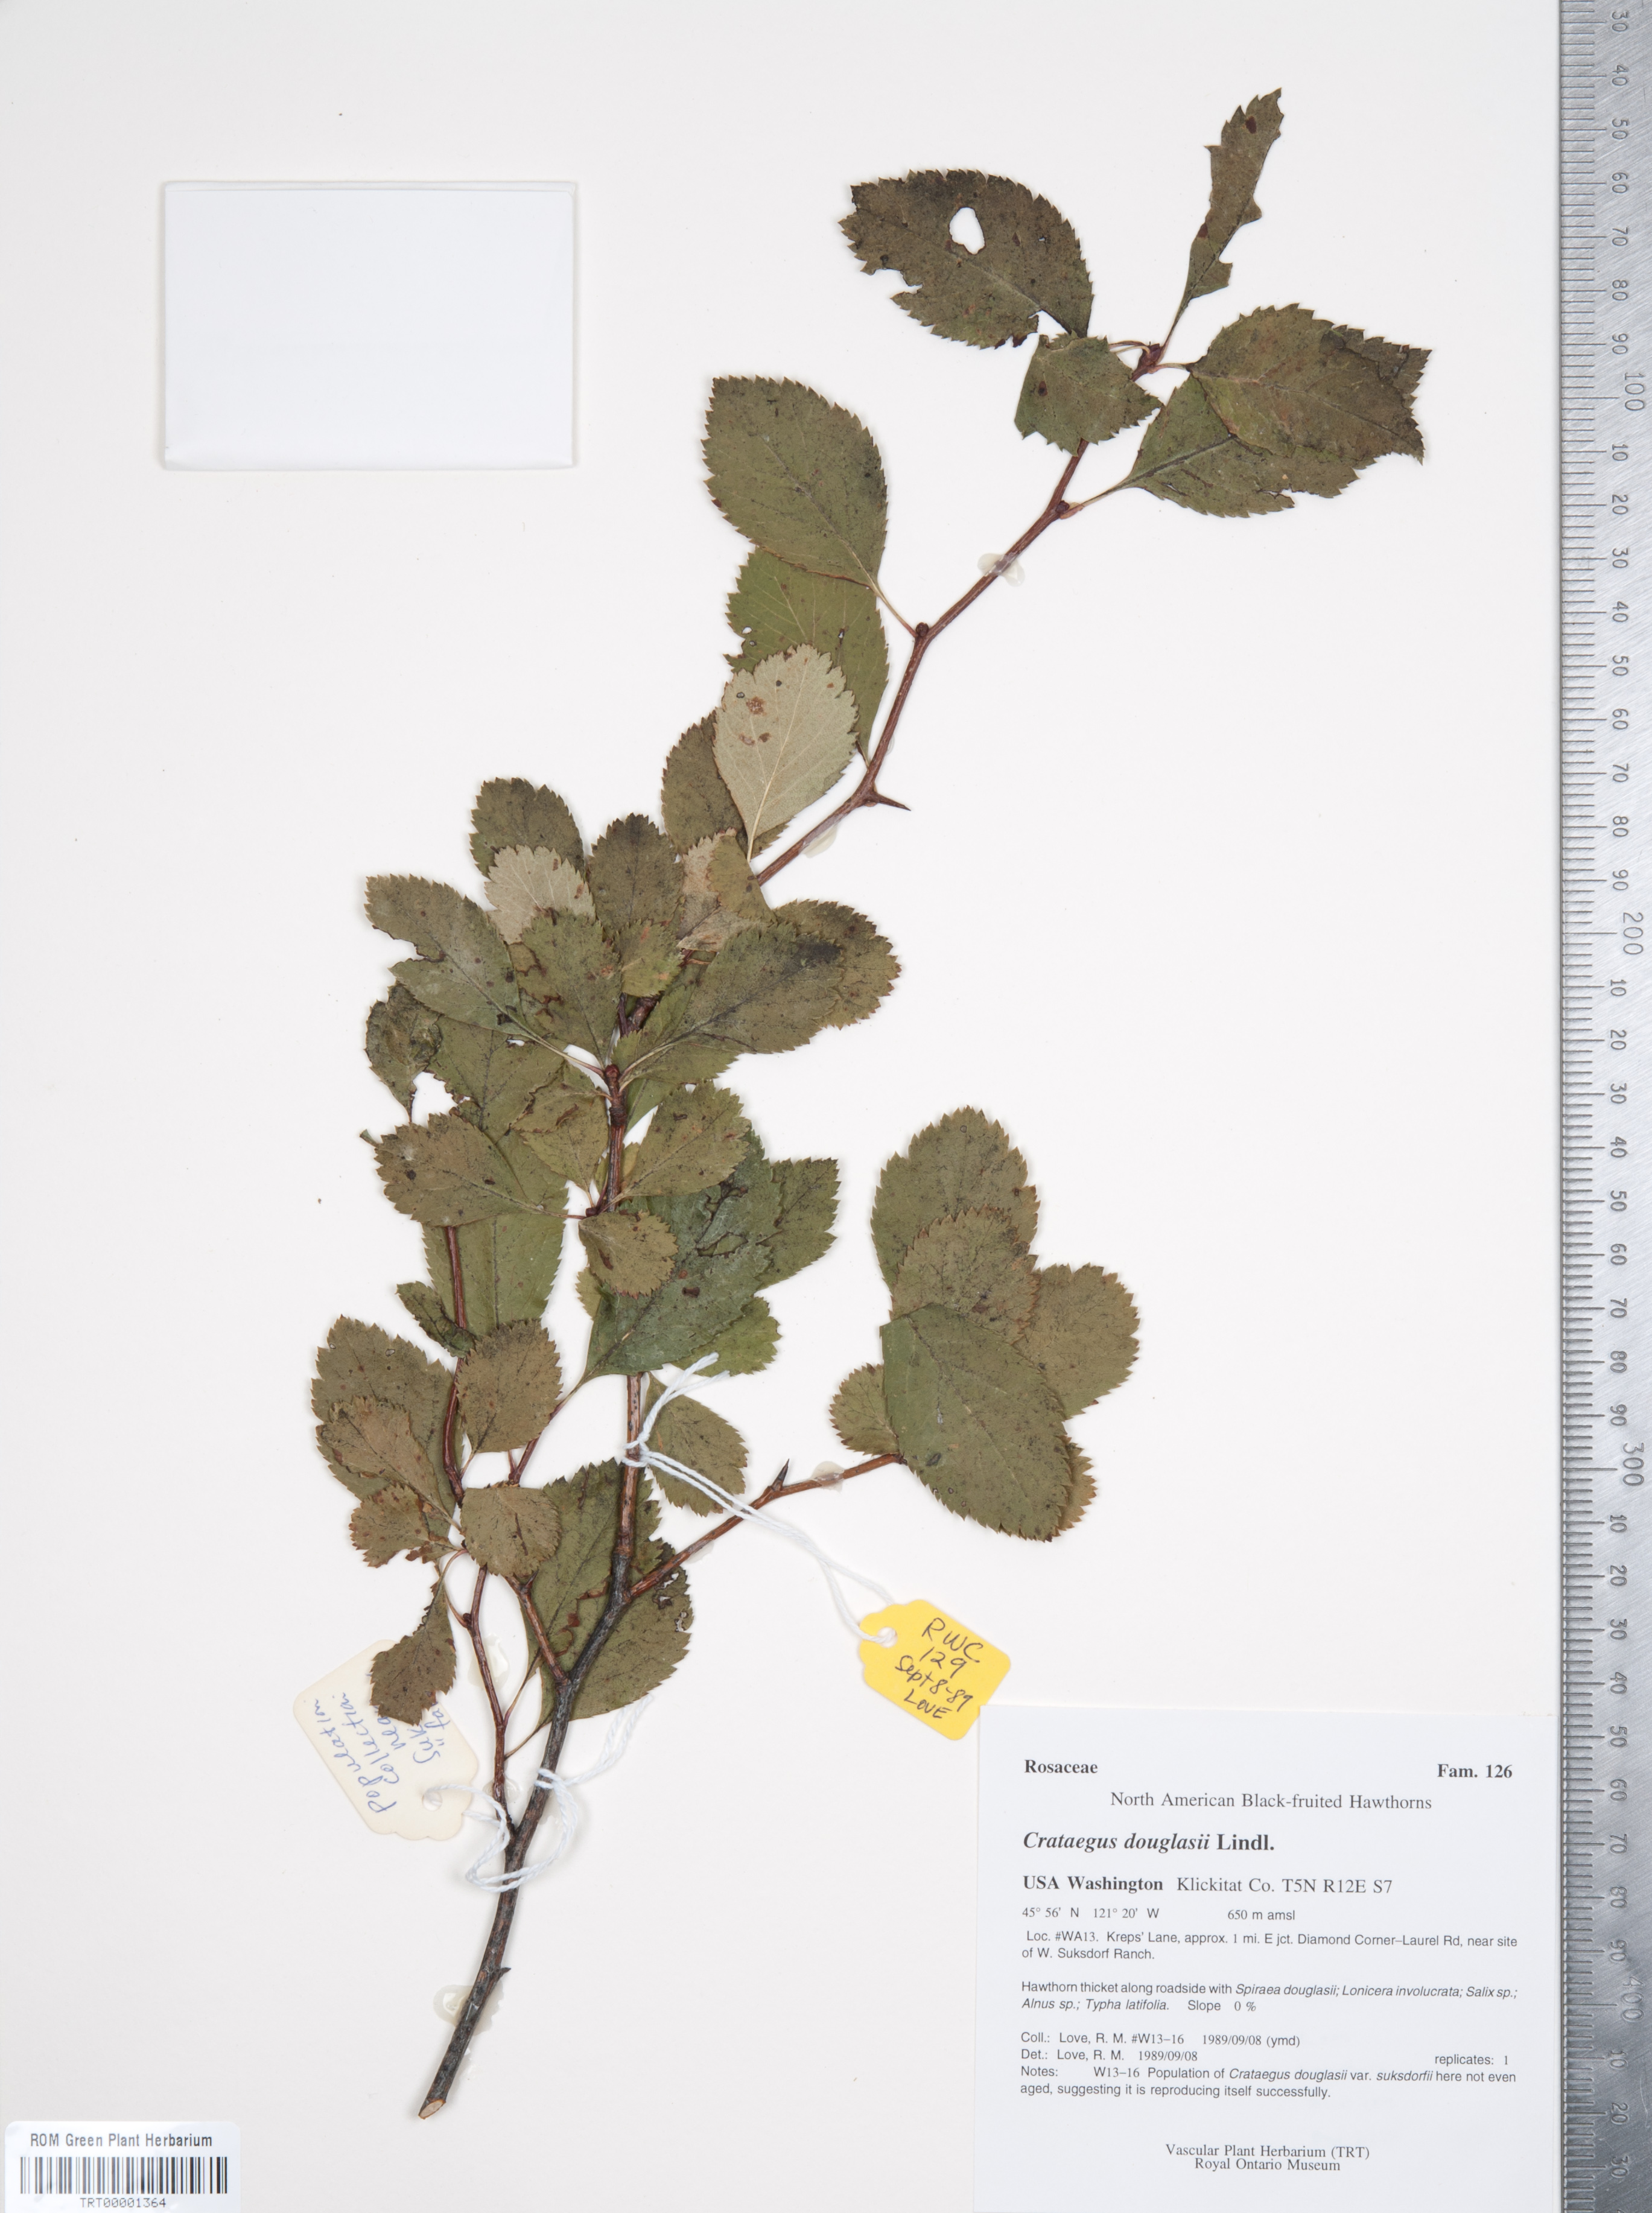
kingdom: Plantae
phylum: Tracheophyta
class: Magnoliopsida
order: Rosales
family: Rosaceae
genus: Crataegus
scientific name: Crataegus douglasii
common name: Black hawthorn
